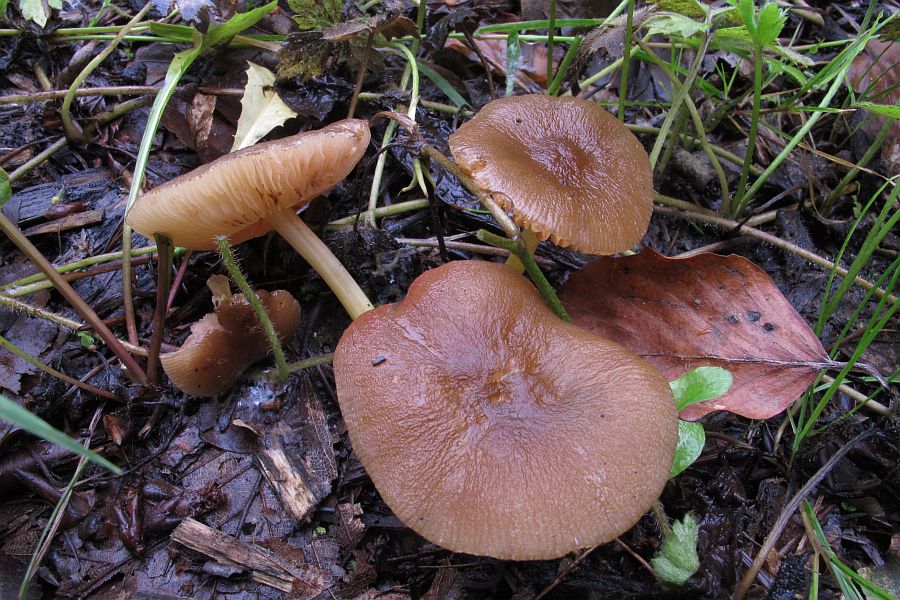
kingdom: Fungi
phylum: Basidiomycota
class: Agaricomycetes
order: Agaricales
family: Pluteaceae
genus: Pluteus
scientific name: Pluteus romellii
